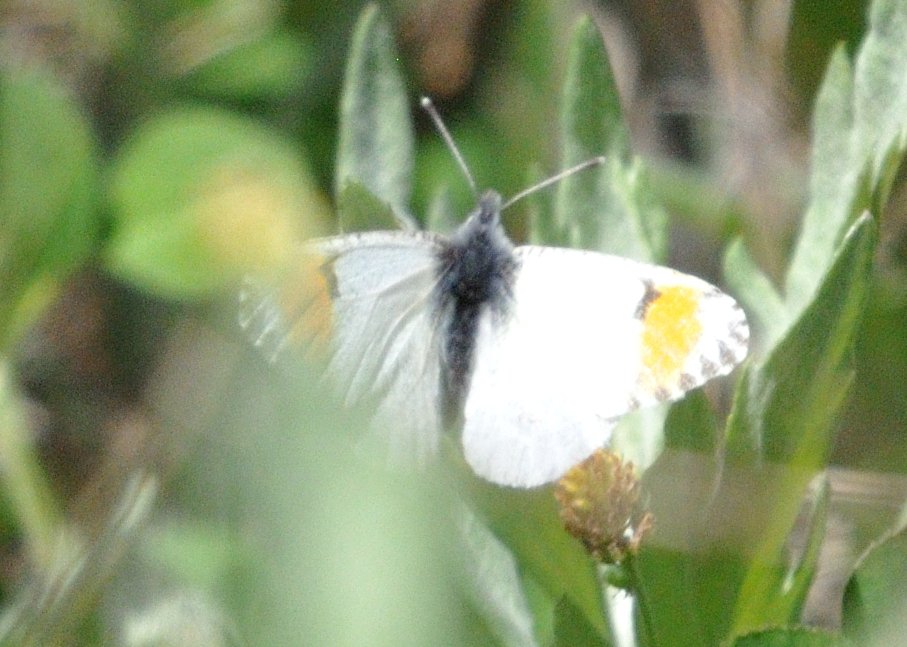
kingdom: Animalia
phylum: Arthropoda
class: Insecta
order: Lepidoptera
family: Pieridae
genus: Anthocharis
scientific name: Anthocharis sara
